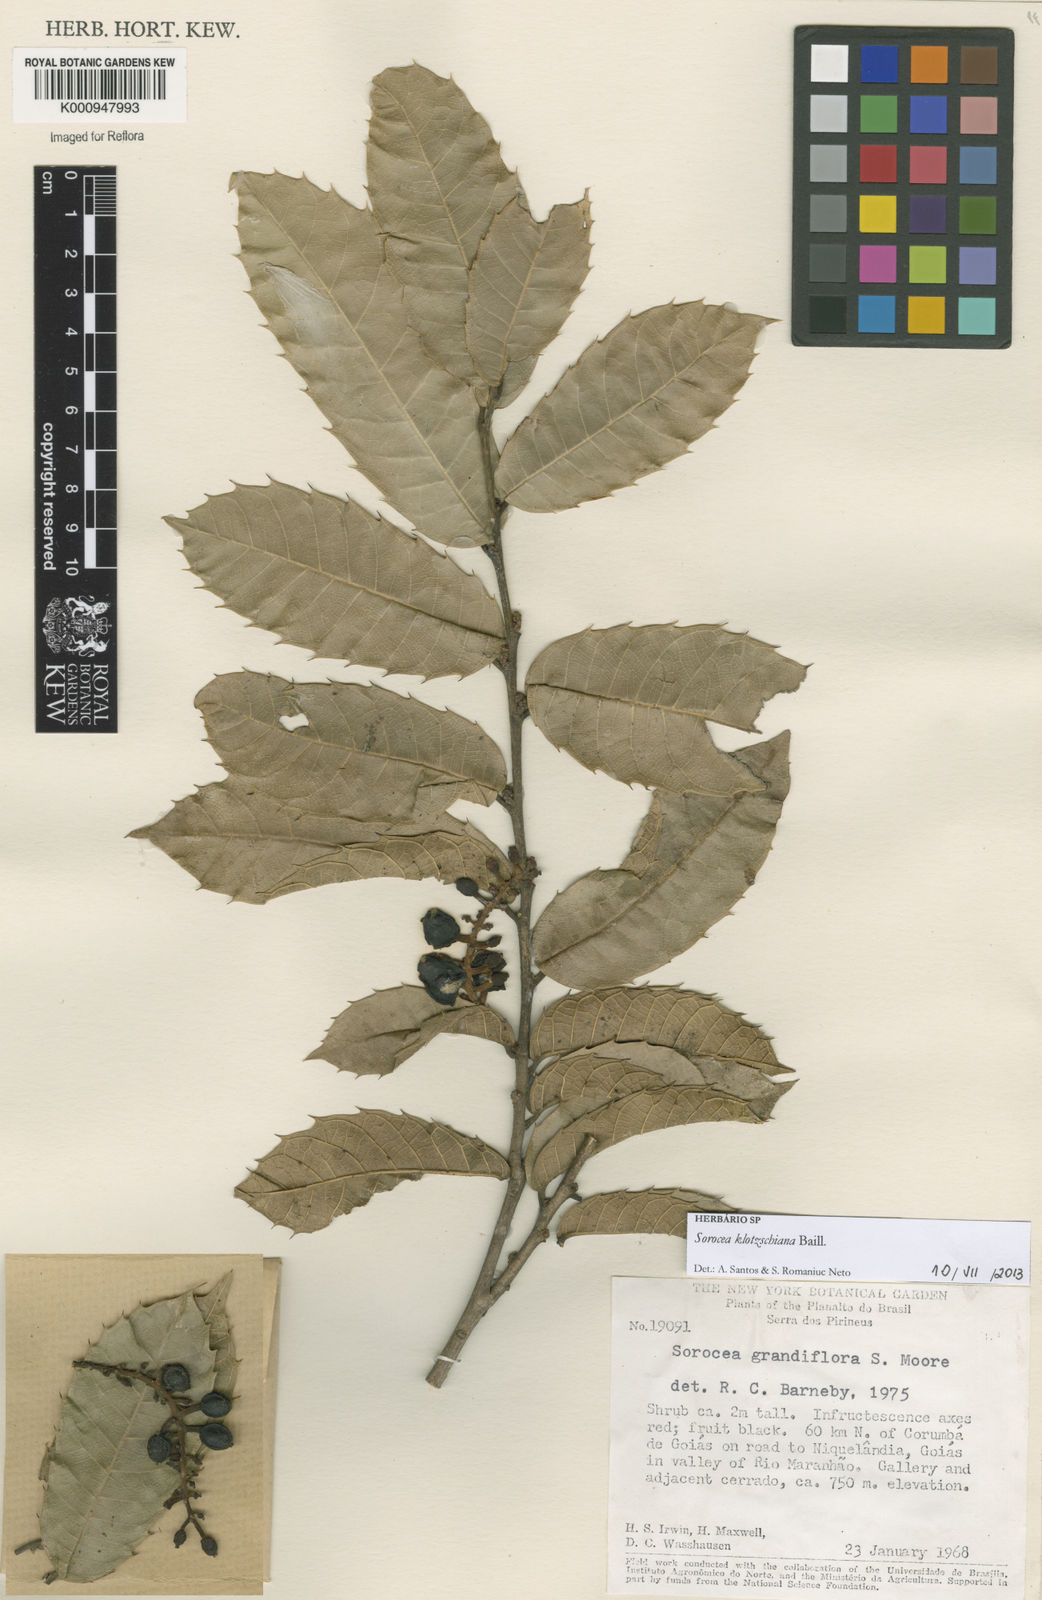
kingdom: Plantae
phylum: Tracheophyta
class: Magnoliopsida
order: Rosales
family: Moraceae
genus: Sorocea
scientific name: Sorocea guilleminiana
